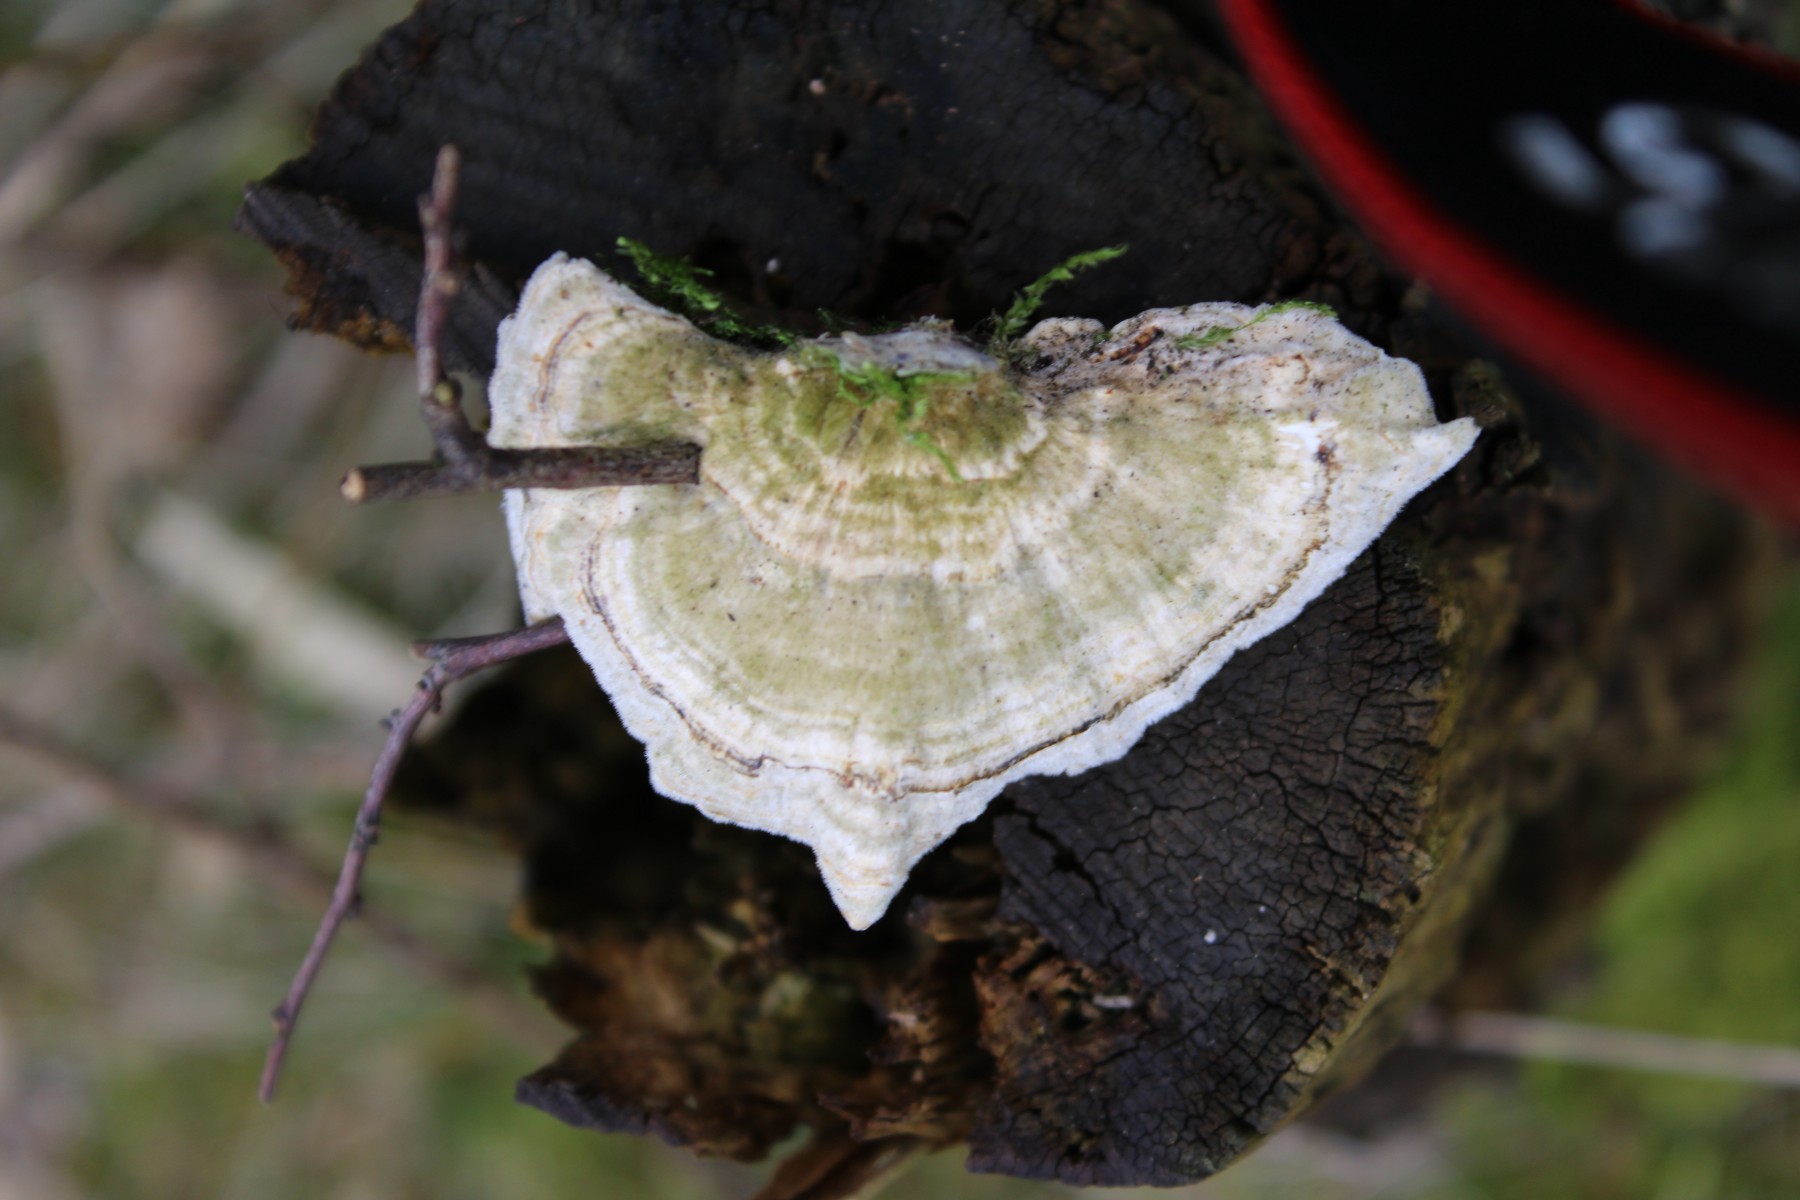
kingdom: Fungi
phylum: Basidiomycota
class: Agaricomycetes
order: Russulales
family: Stereaceae
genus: Stereum
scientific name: Stereum hirsutum
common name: håret lædersvamp
